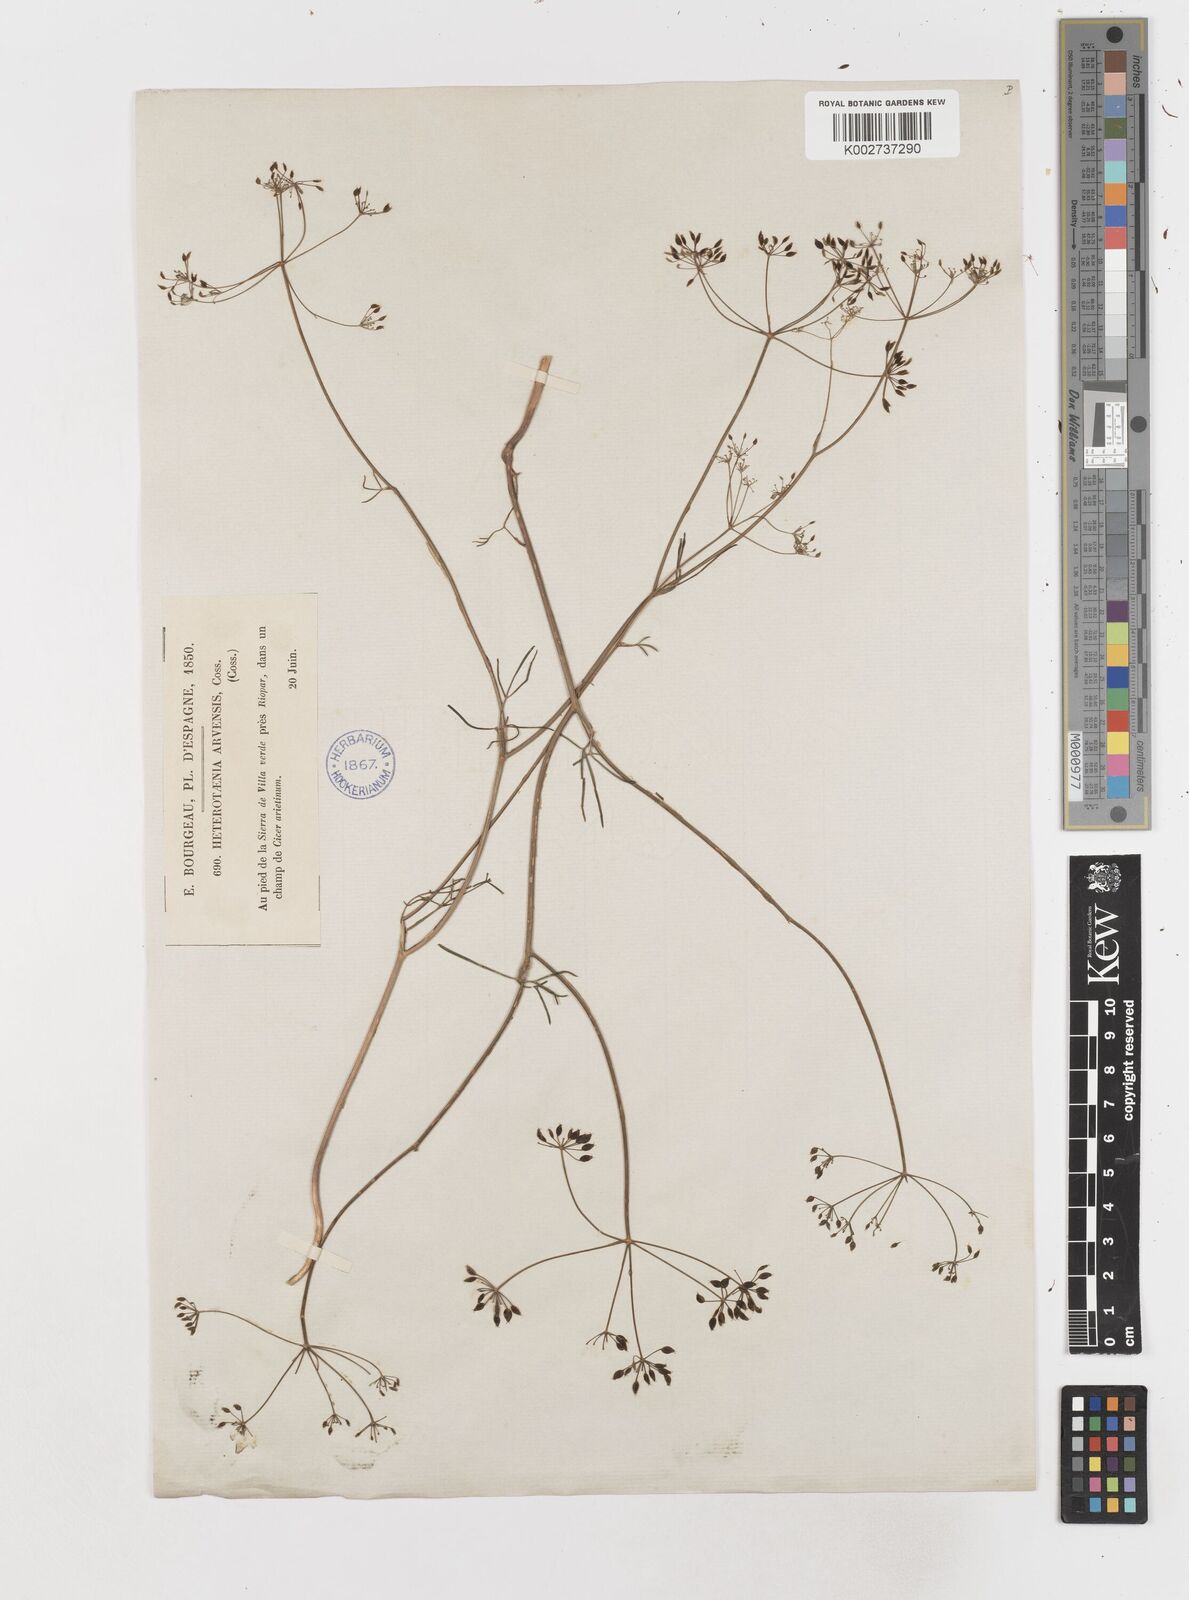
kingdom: Plantae
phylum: Tracheophyta
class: Magnoliopsida
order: Apiales
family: Apiaceae
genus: Conopodium
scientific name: Conopodium arvense
